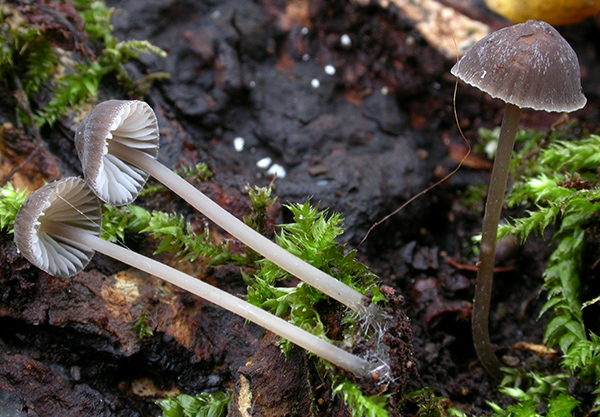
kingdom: Fungi
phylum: Basidiomycota
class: Agaricomycetes
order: Agaricales
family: Mycenaceae
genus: Mycena
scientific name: Mycena erubescens
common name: galde-huesvamp
